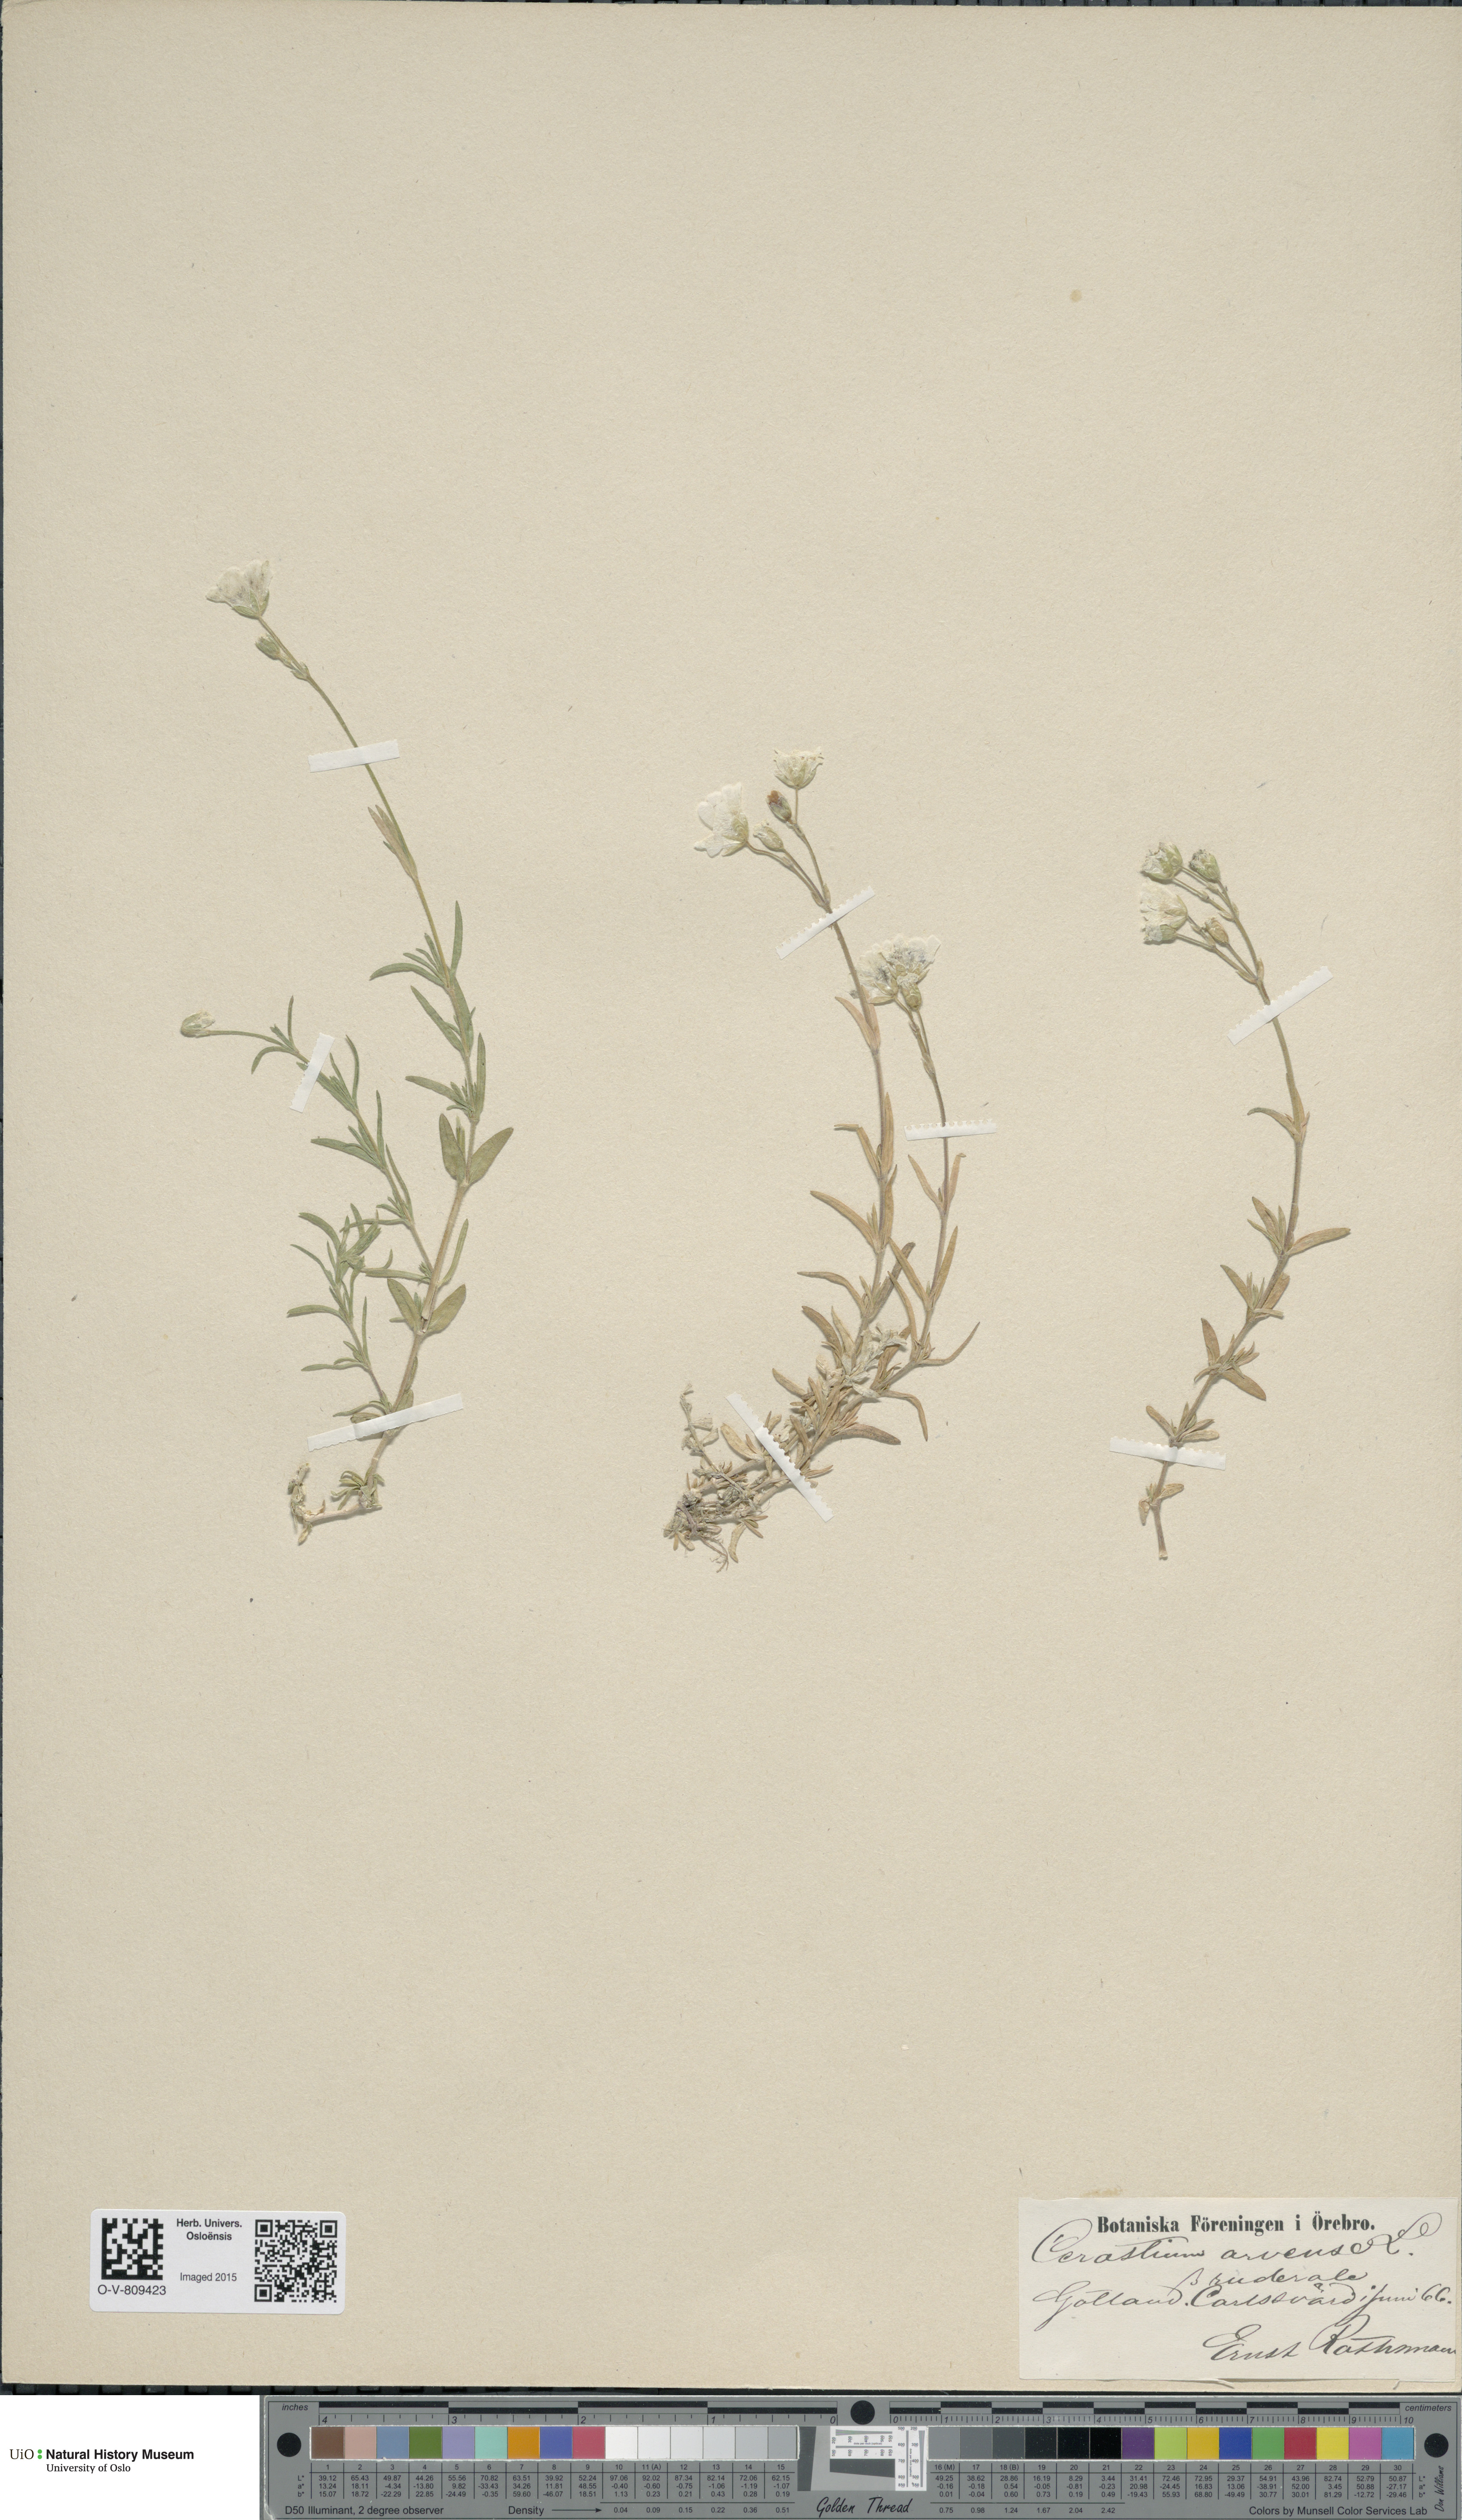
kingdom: Plantae
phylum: Tracheophyta
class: Magnoliopsida
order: Caryophyllales
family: Caryophyllaceae
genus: Cerastium
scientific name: Cerastium arvense
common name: Field mouse-ear
